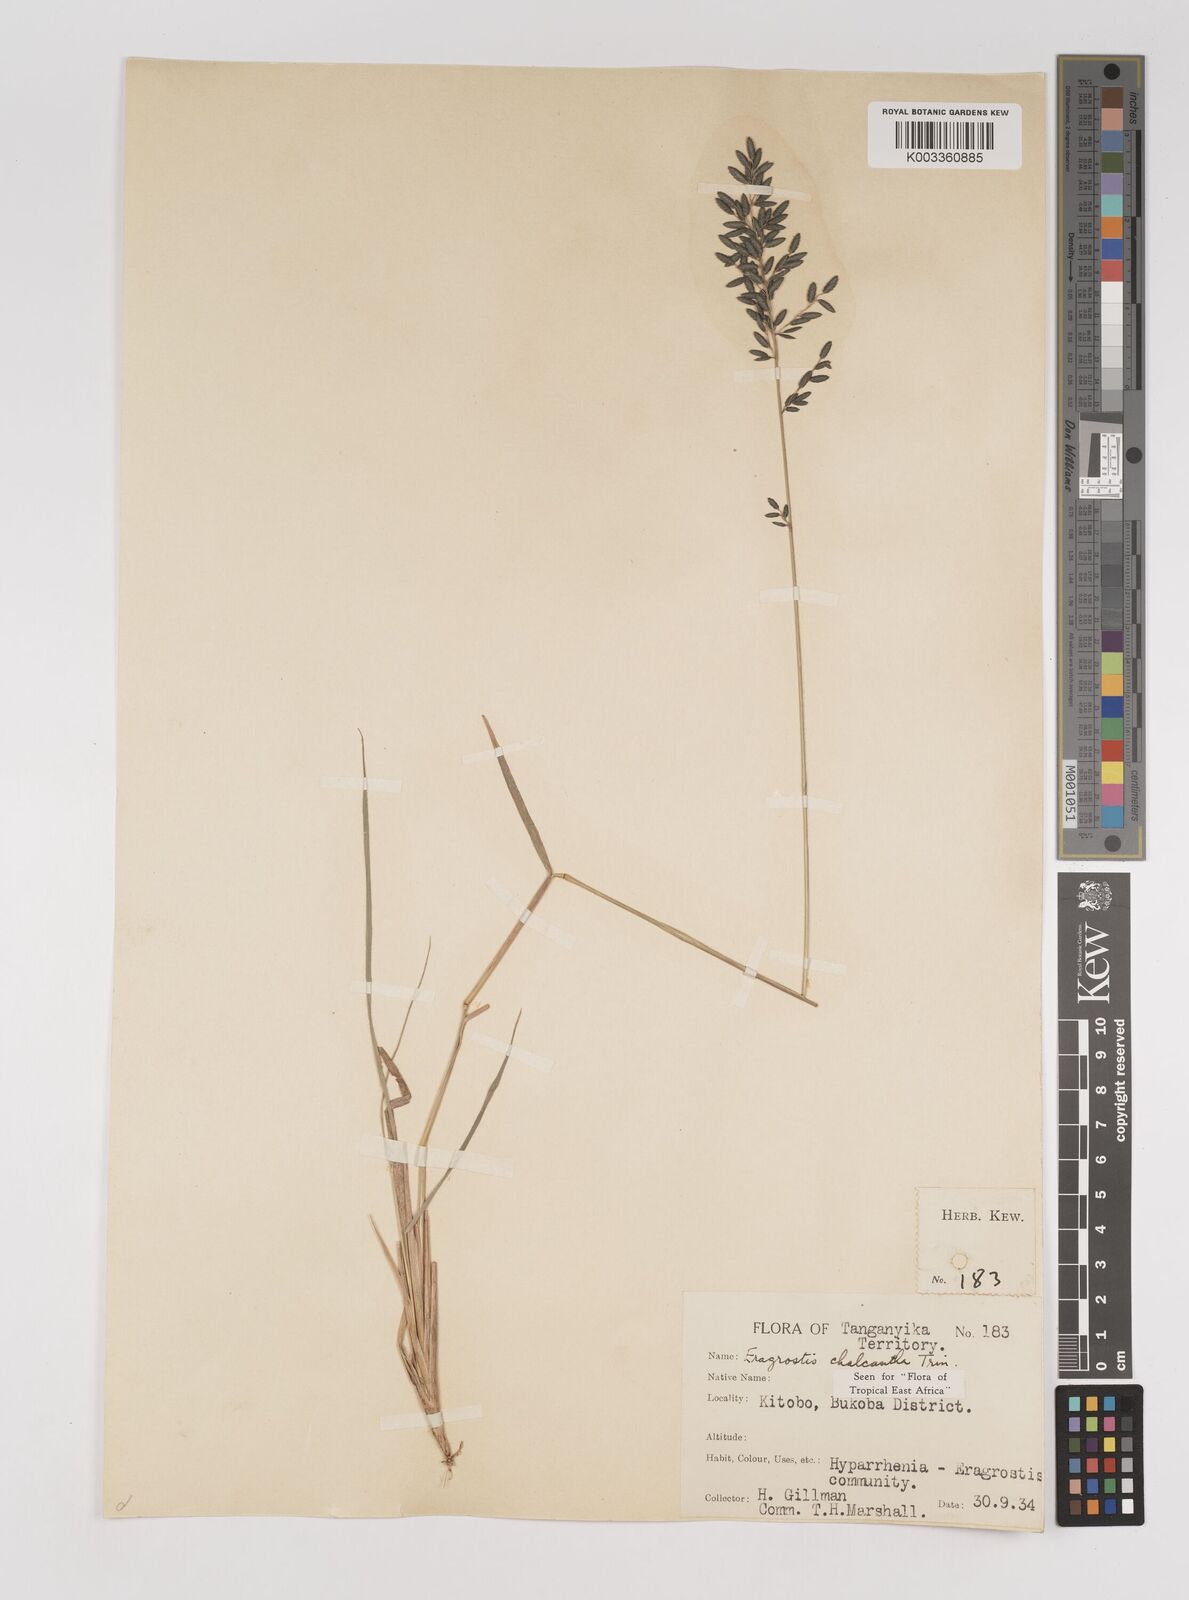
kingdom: Plantae
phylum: Tracheophyta
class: Liliopsida
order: Poales
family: Poaceae
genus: Eragrostis
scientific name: Eragrostis racemosa
